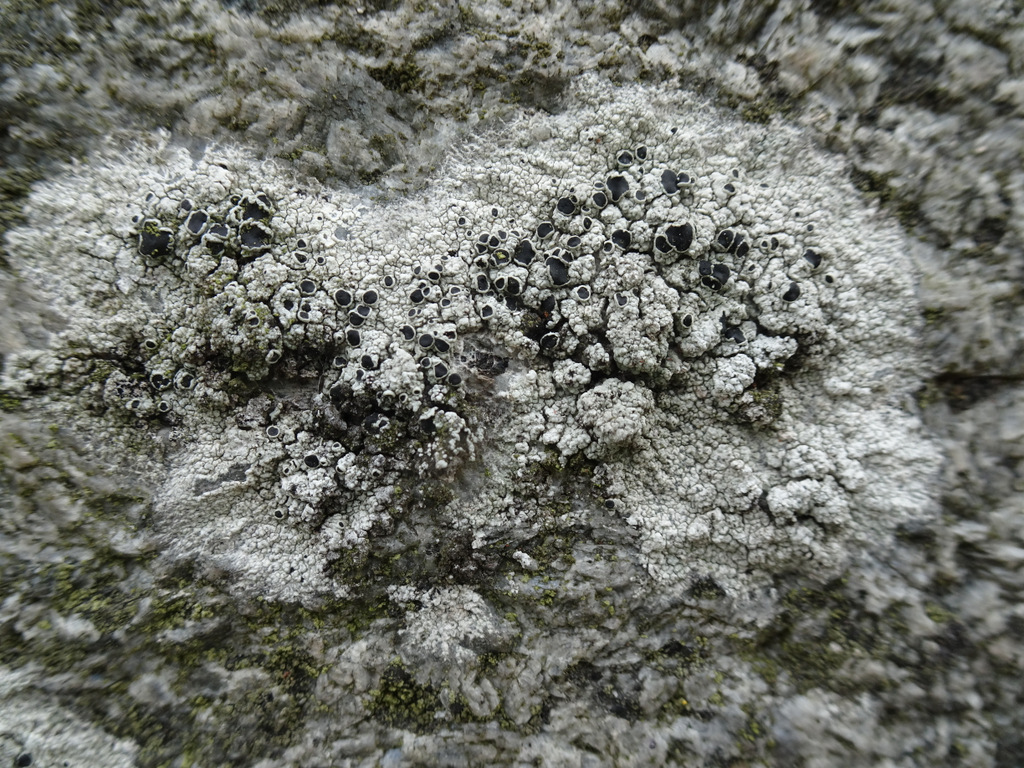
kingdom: Fungi
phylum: Ascomycota
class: Lecanoromycetes
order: Lecanorales
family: Tephromelataceae
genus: Tephromela
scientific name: Tephromela atra
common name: sortfrugtet kantskivelav
